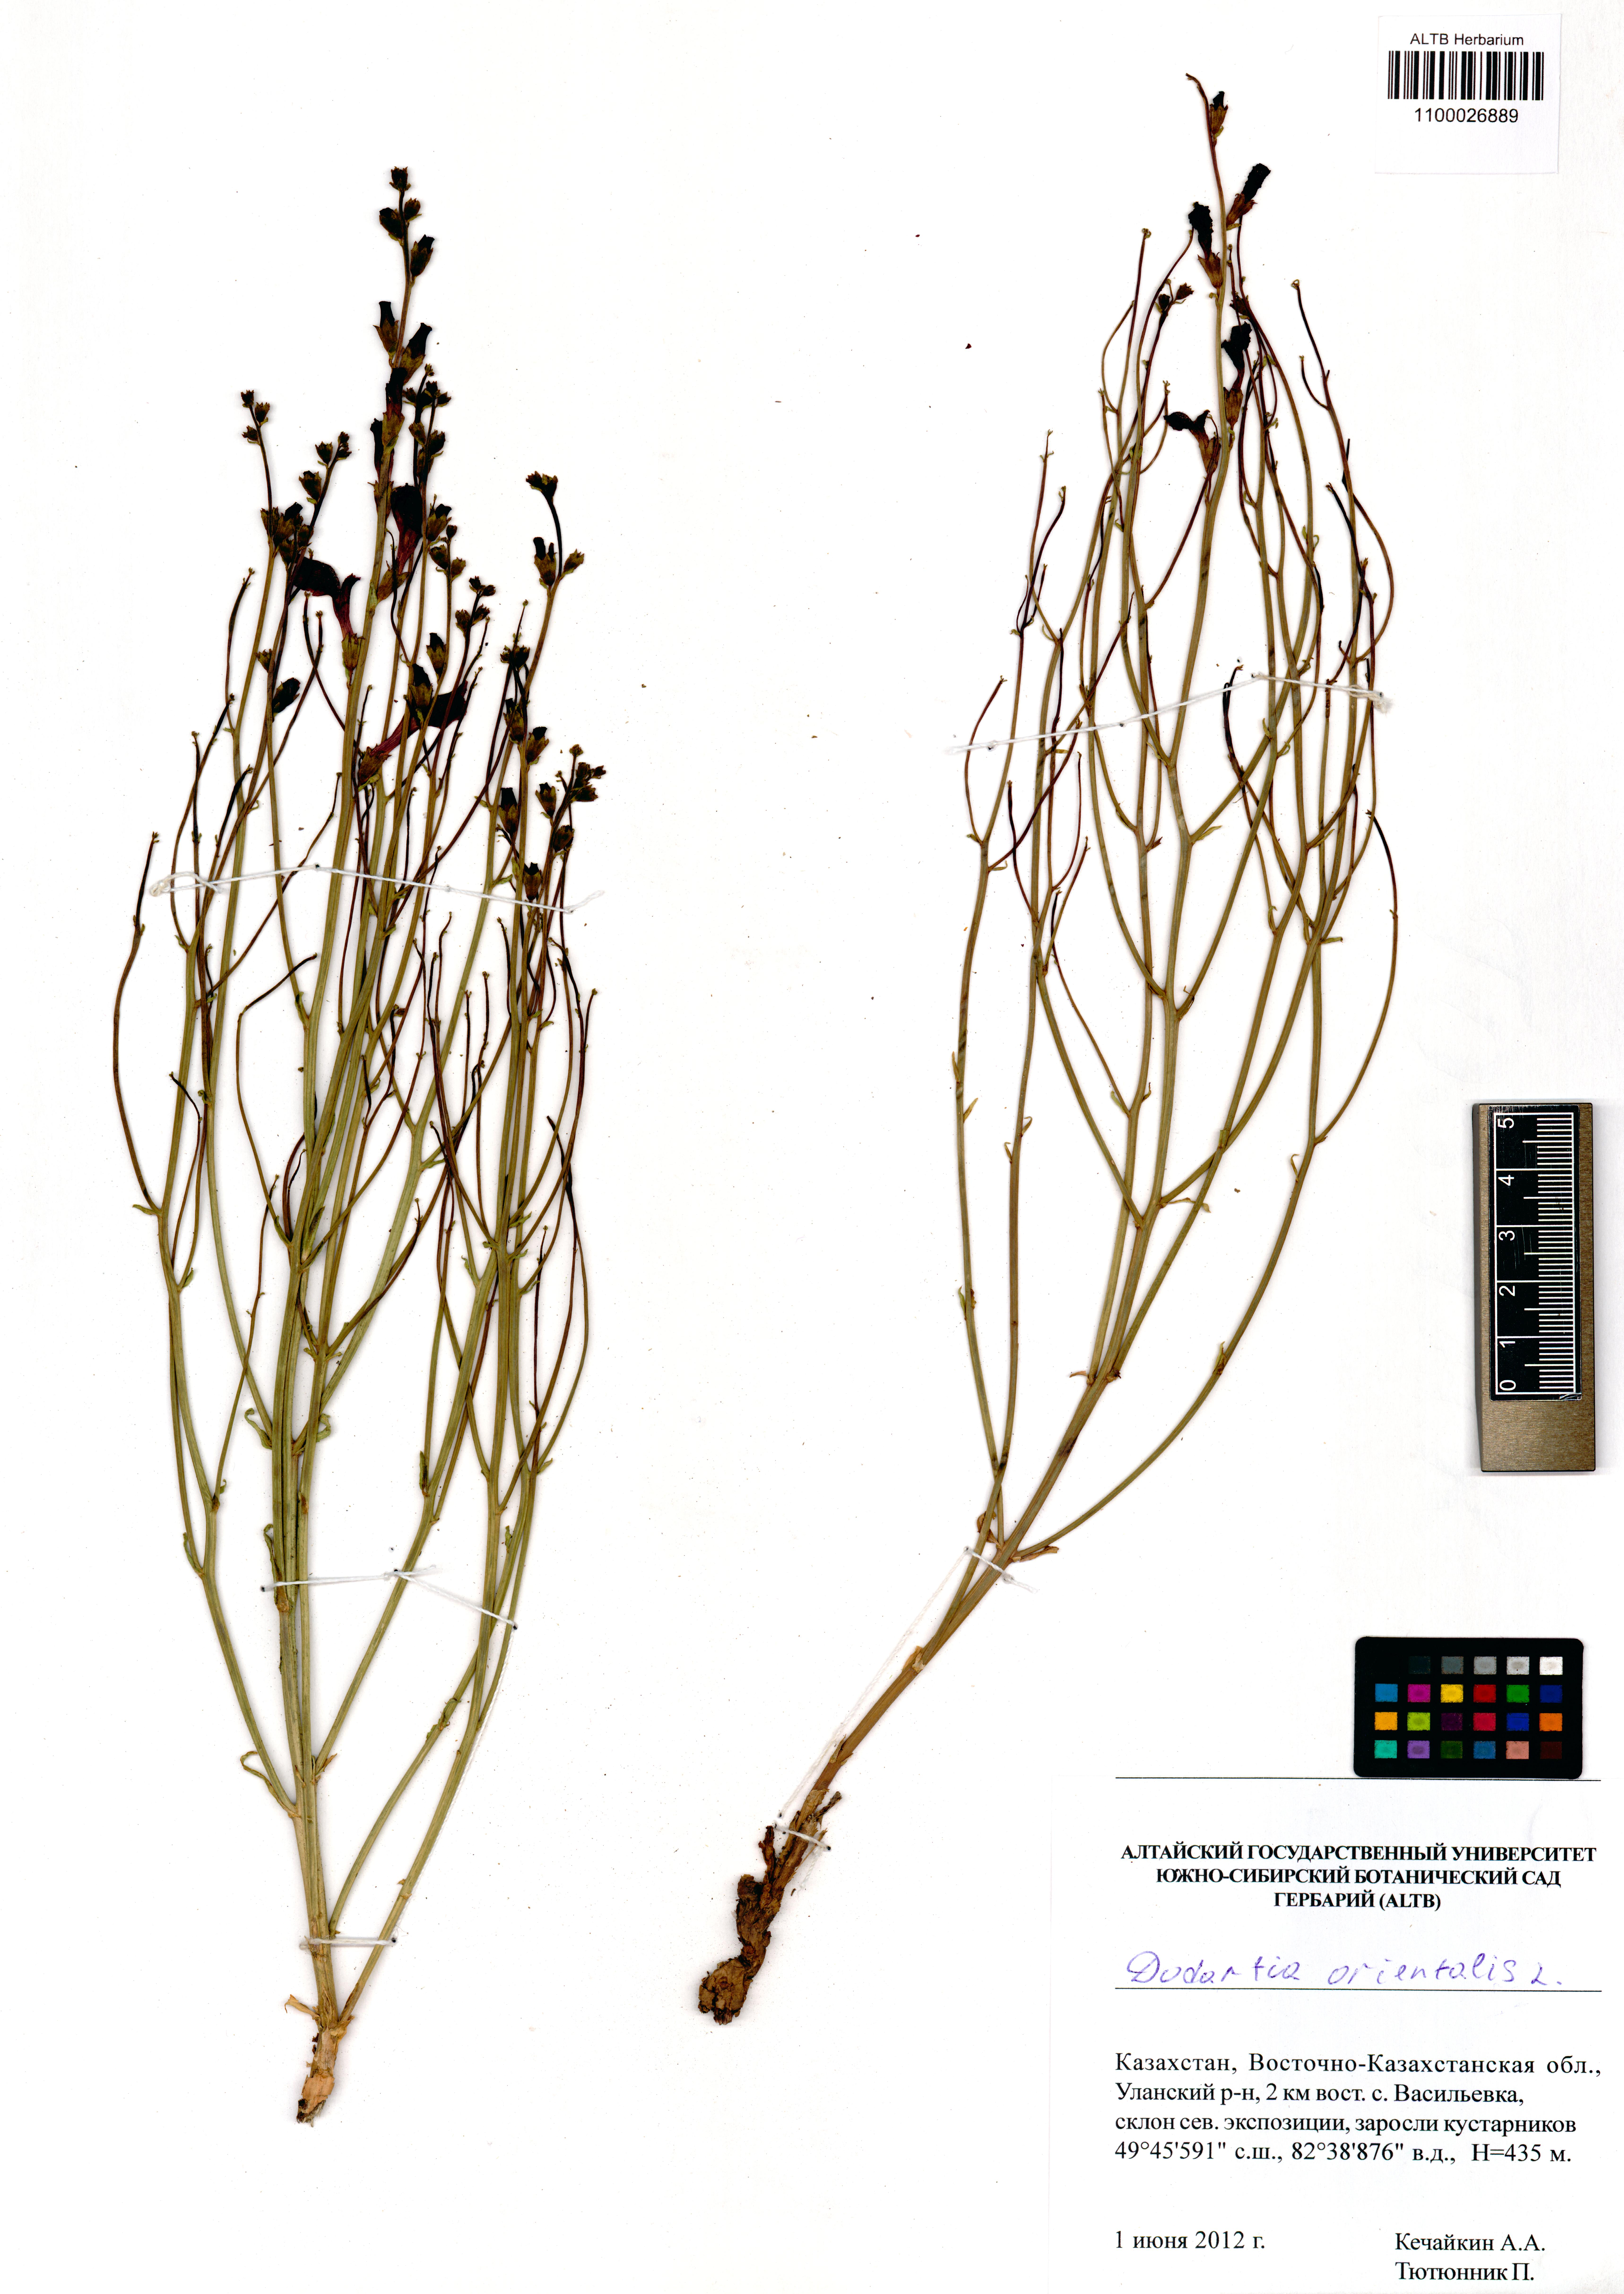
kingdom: Plantae
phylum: Tracheophyta
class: Magnoliopsida
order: Lamiales
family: Mazaceae
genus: Dodartia
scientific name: Dodartia orientalis
